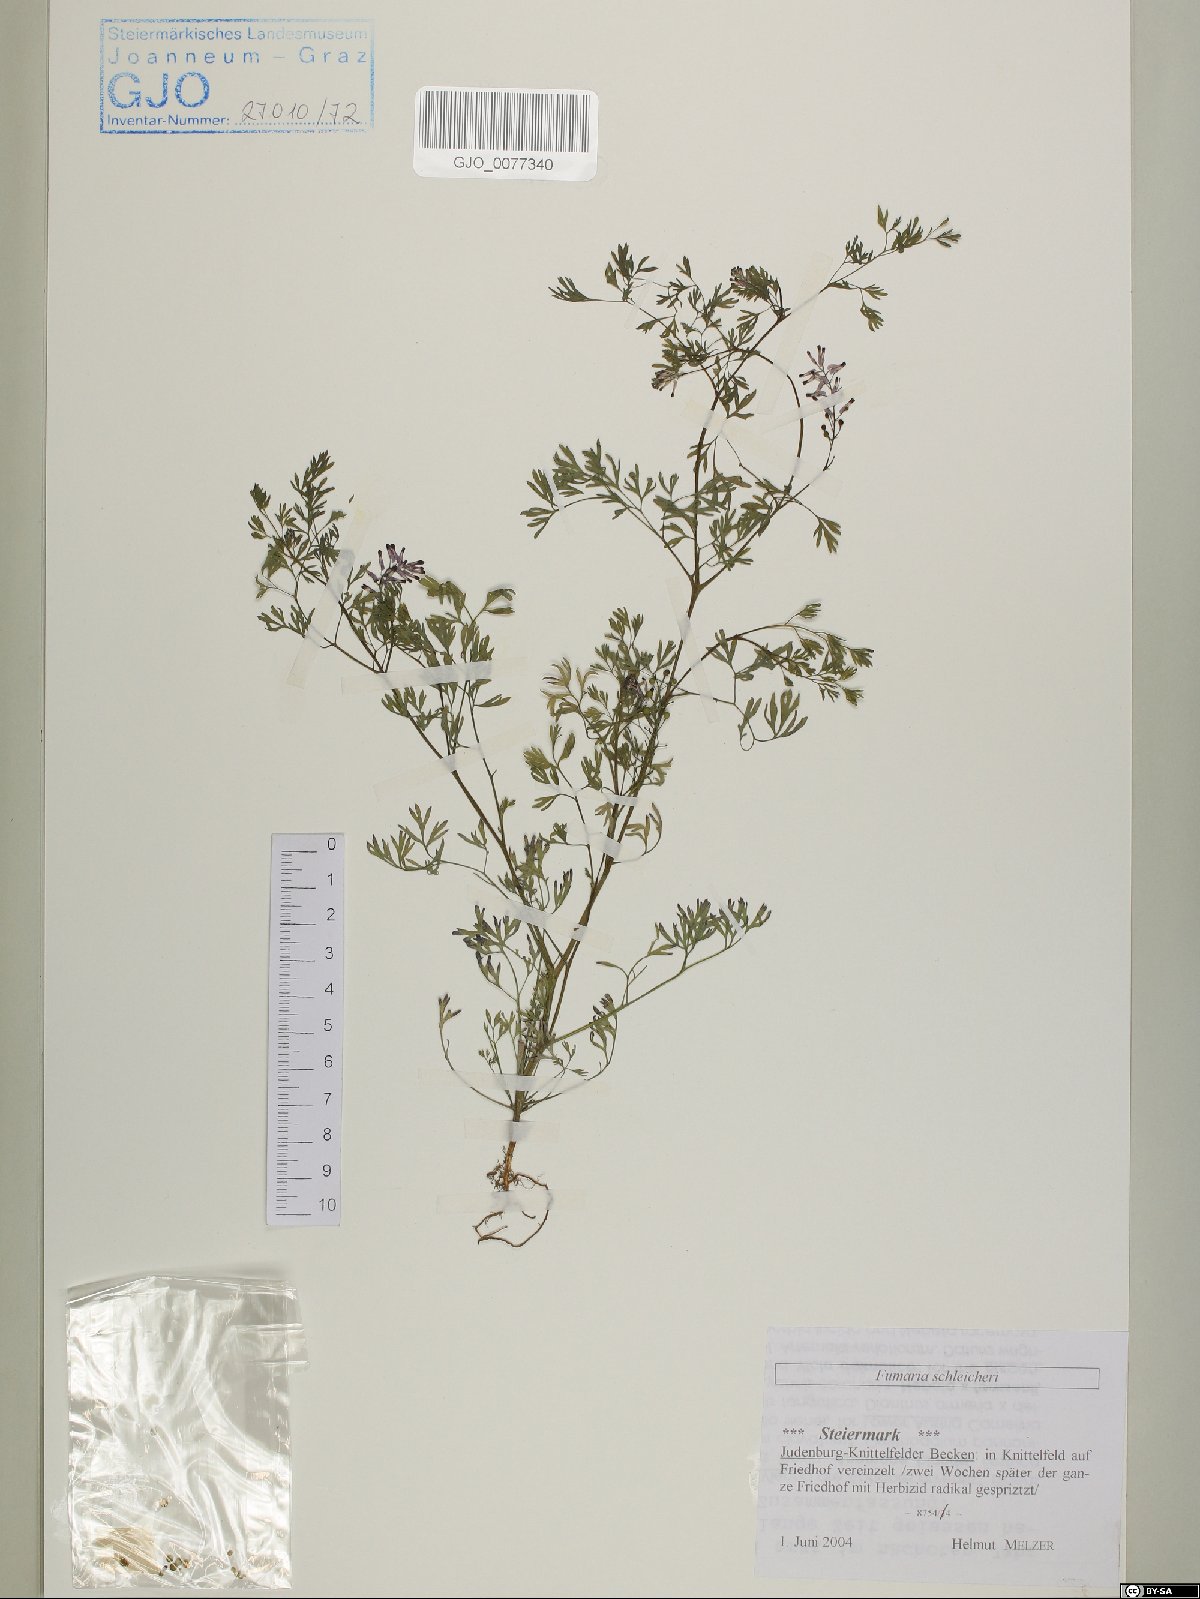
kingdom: Plantae
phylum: Tracheophyta
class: Magnoliopsida
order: Ranunculales
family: Papaveraceae
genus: Fumaria
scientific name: Fumaria schleicheri
